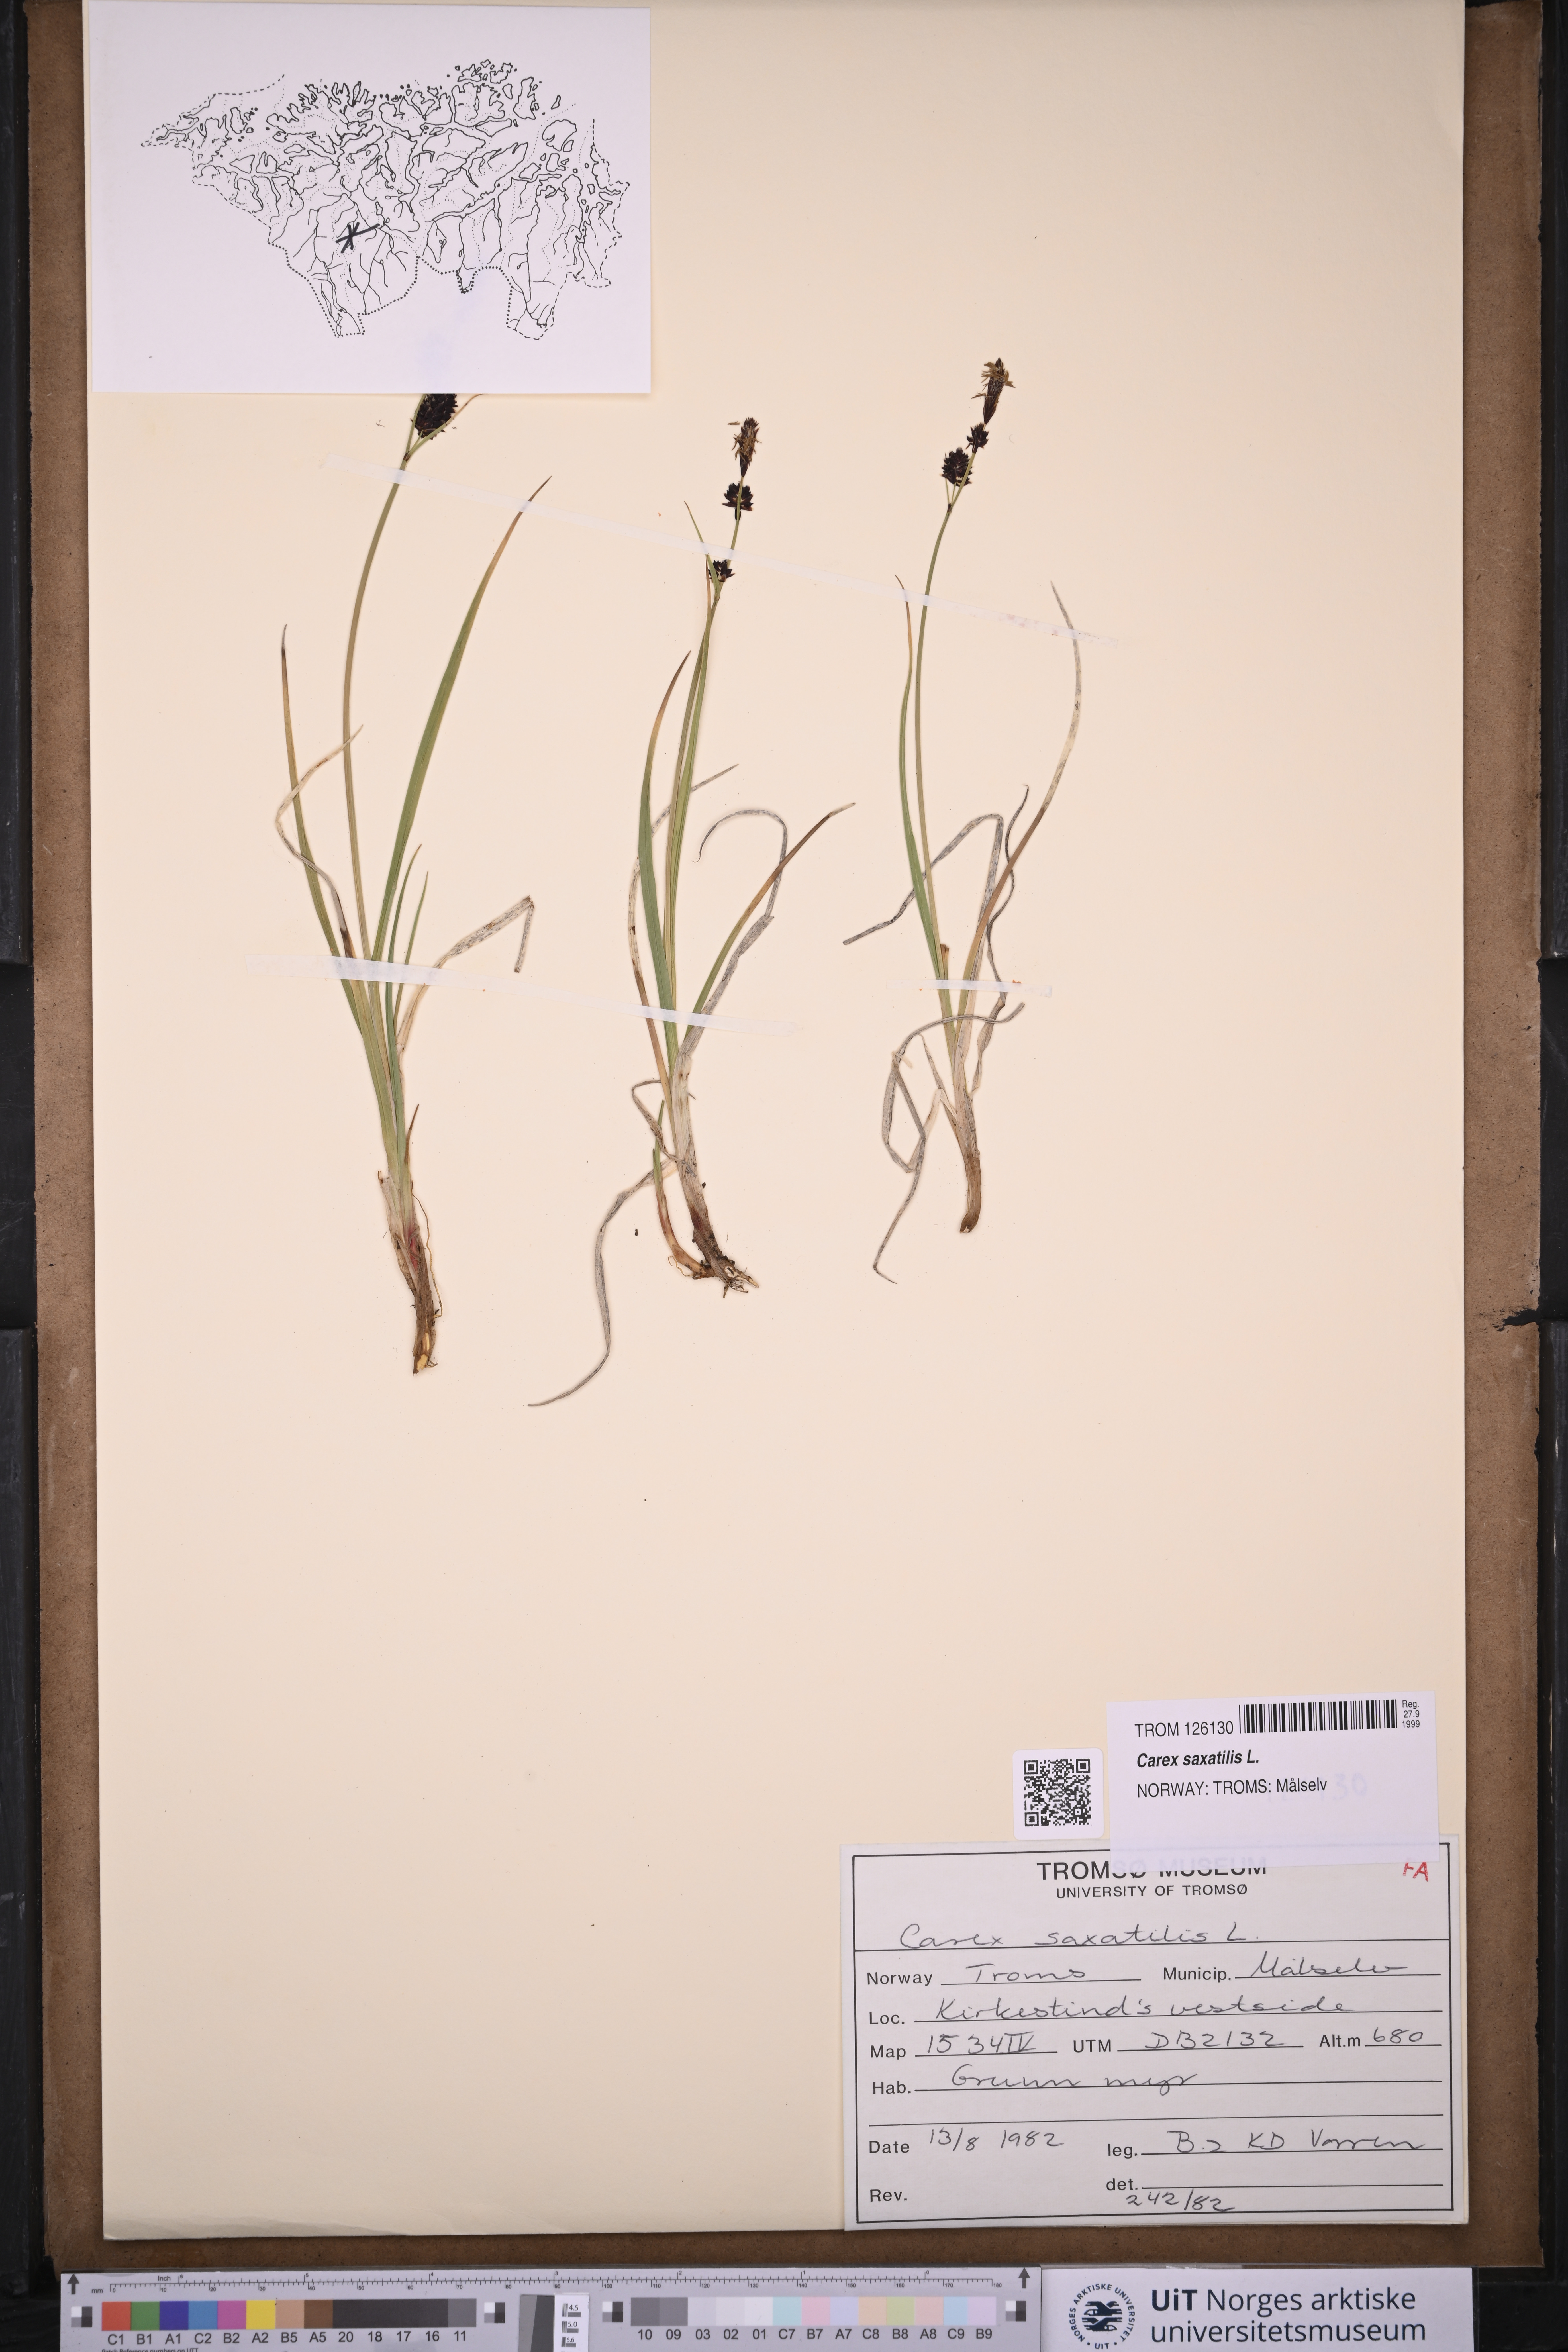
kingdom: Plantae
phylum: Tracheophyta
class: Liliopsida
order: Poales
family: Cyperaceae
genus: Carex
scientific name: Carex saxatilis
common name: Russet sedge
